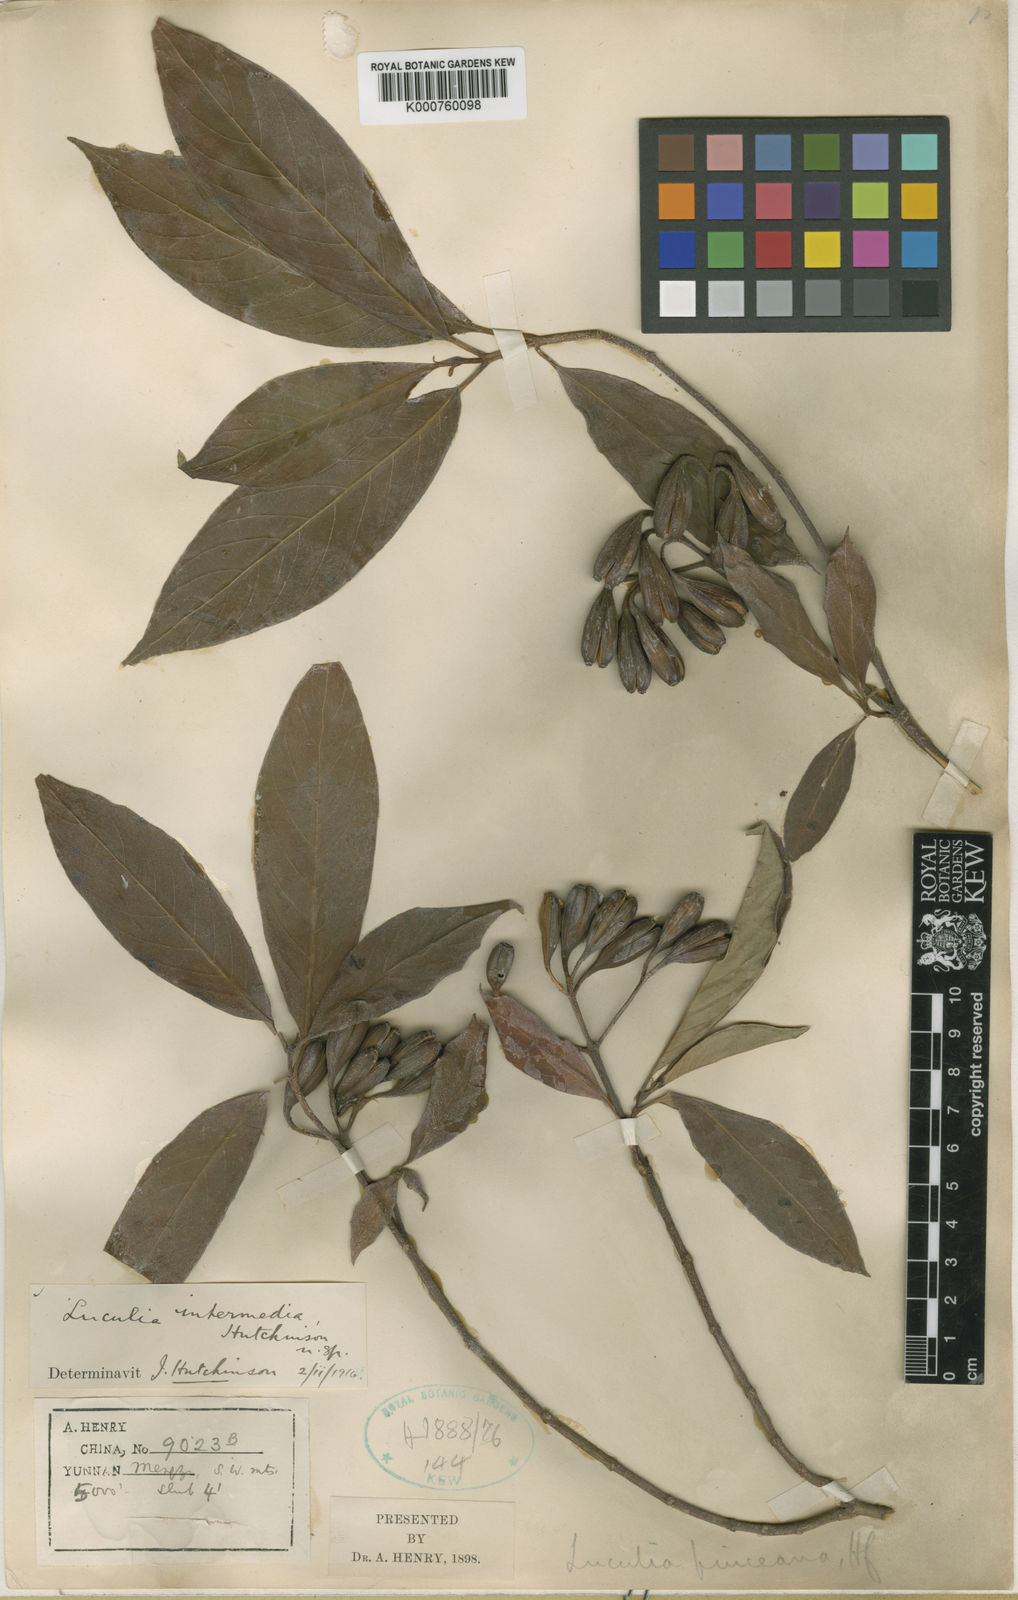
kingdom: Plantae
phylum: Tracheophyta
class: Magnoliopsida
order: Gentianales
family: Rubiaceae
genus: Luculia
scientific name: Luculia pinceana
